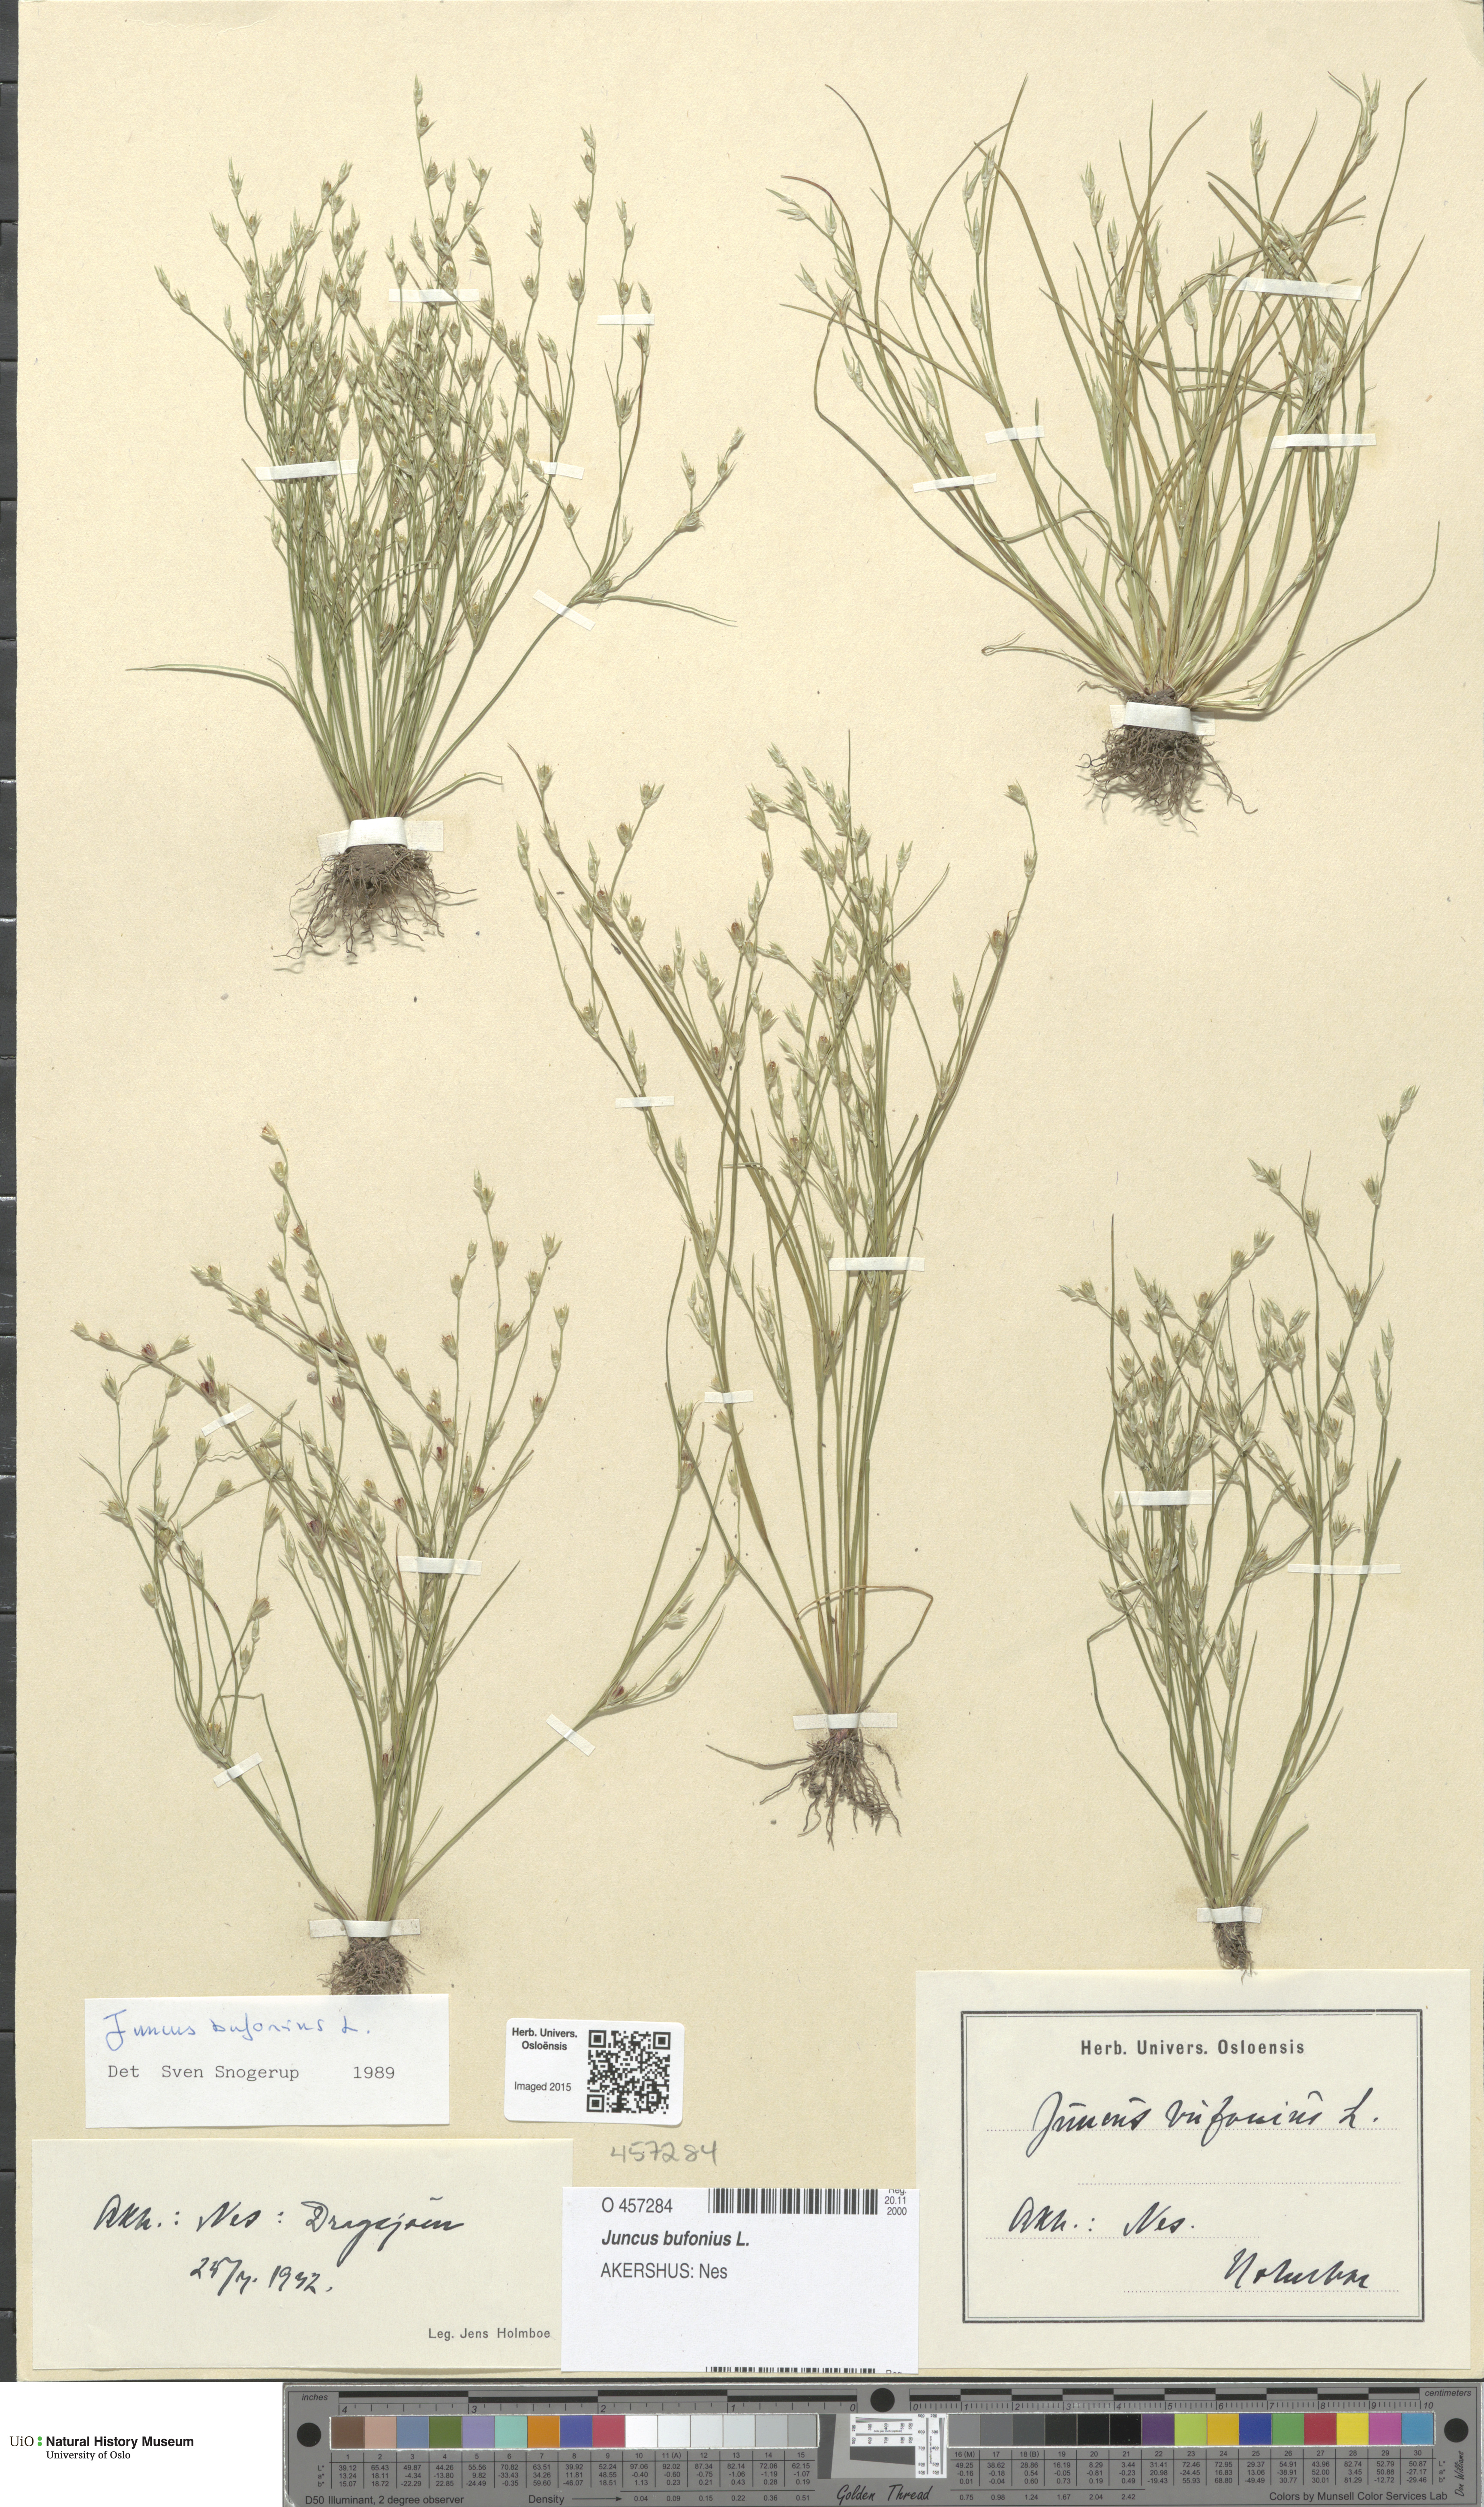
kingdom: Plantae
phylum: Tracheophyta
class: Liliopsida
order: Poales
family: Juncaceae
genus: Juncus
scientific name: Juncus bufonius
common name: Toad rush
